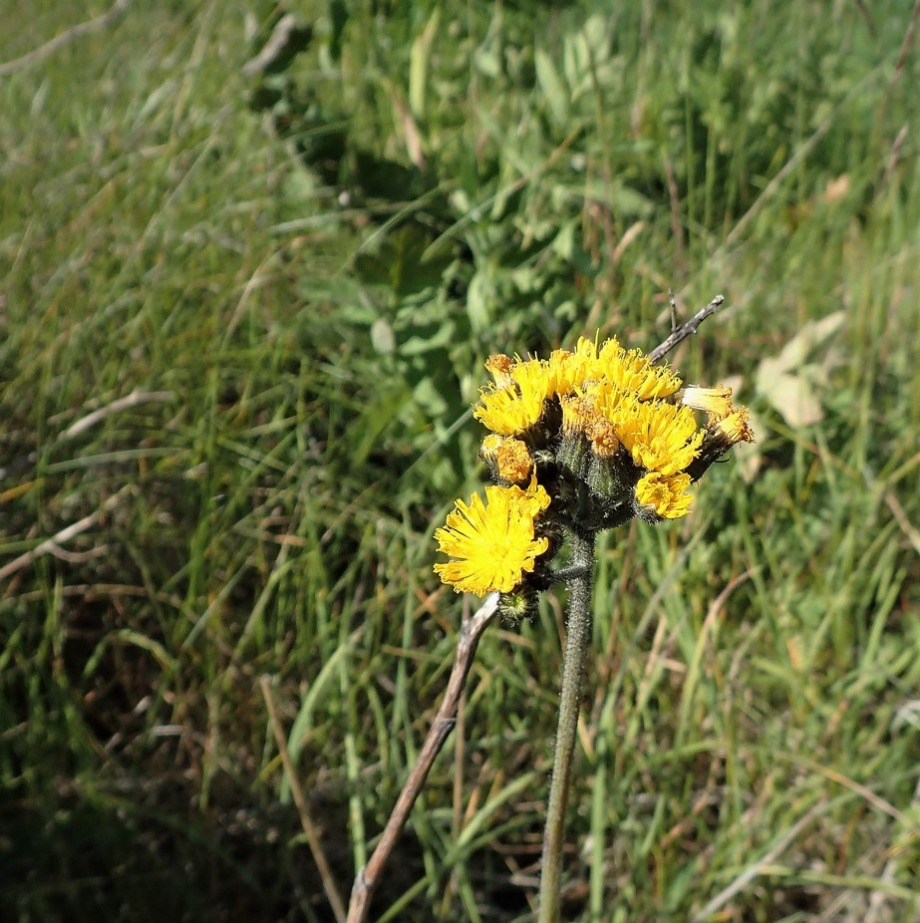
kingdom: Plantae
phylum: Tracheophyta
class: Magnoliopsida
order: Asterales
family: Asteraceae
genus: Pilosella
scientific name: Pilosella cymosa
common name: Blød kvast-høgeurt
